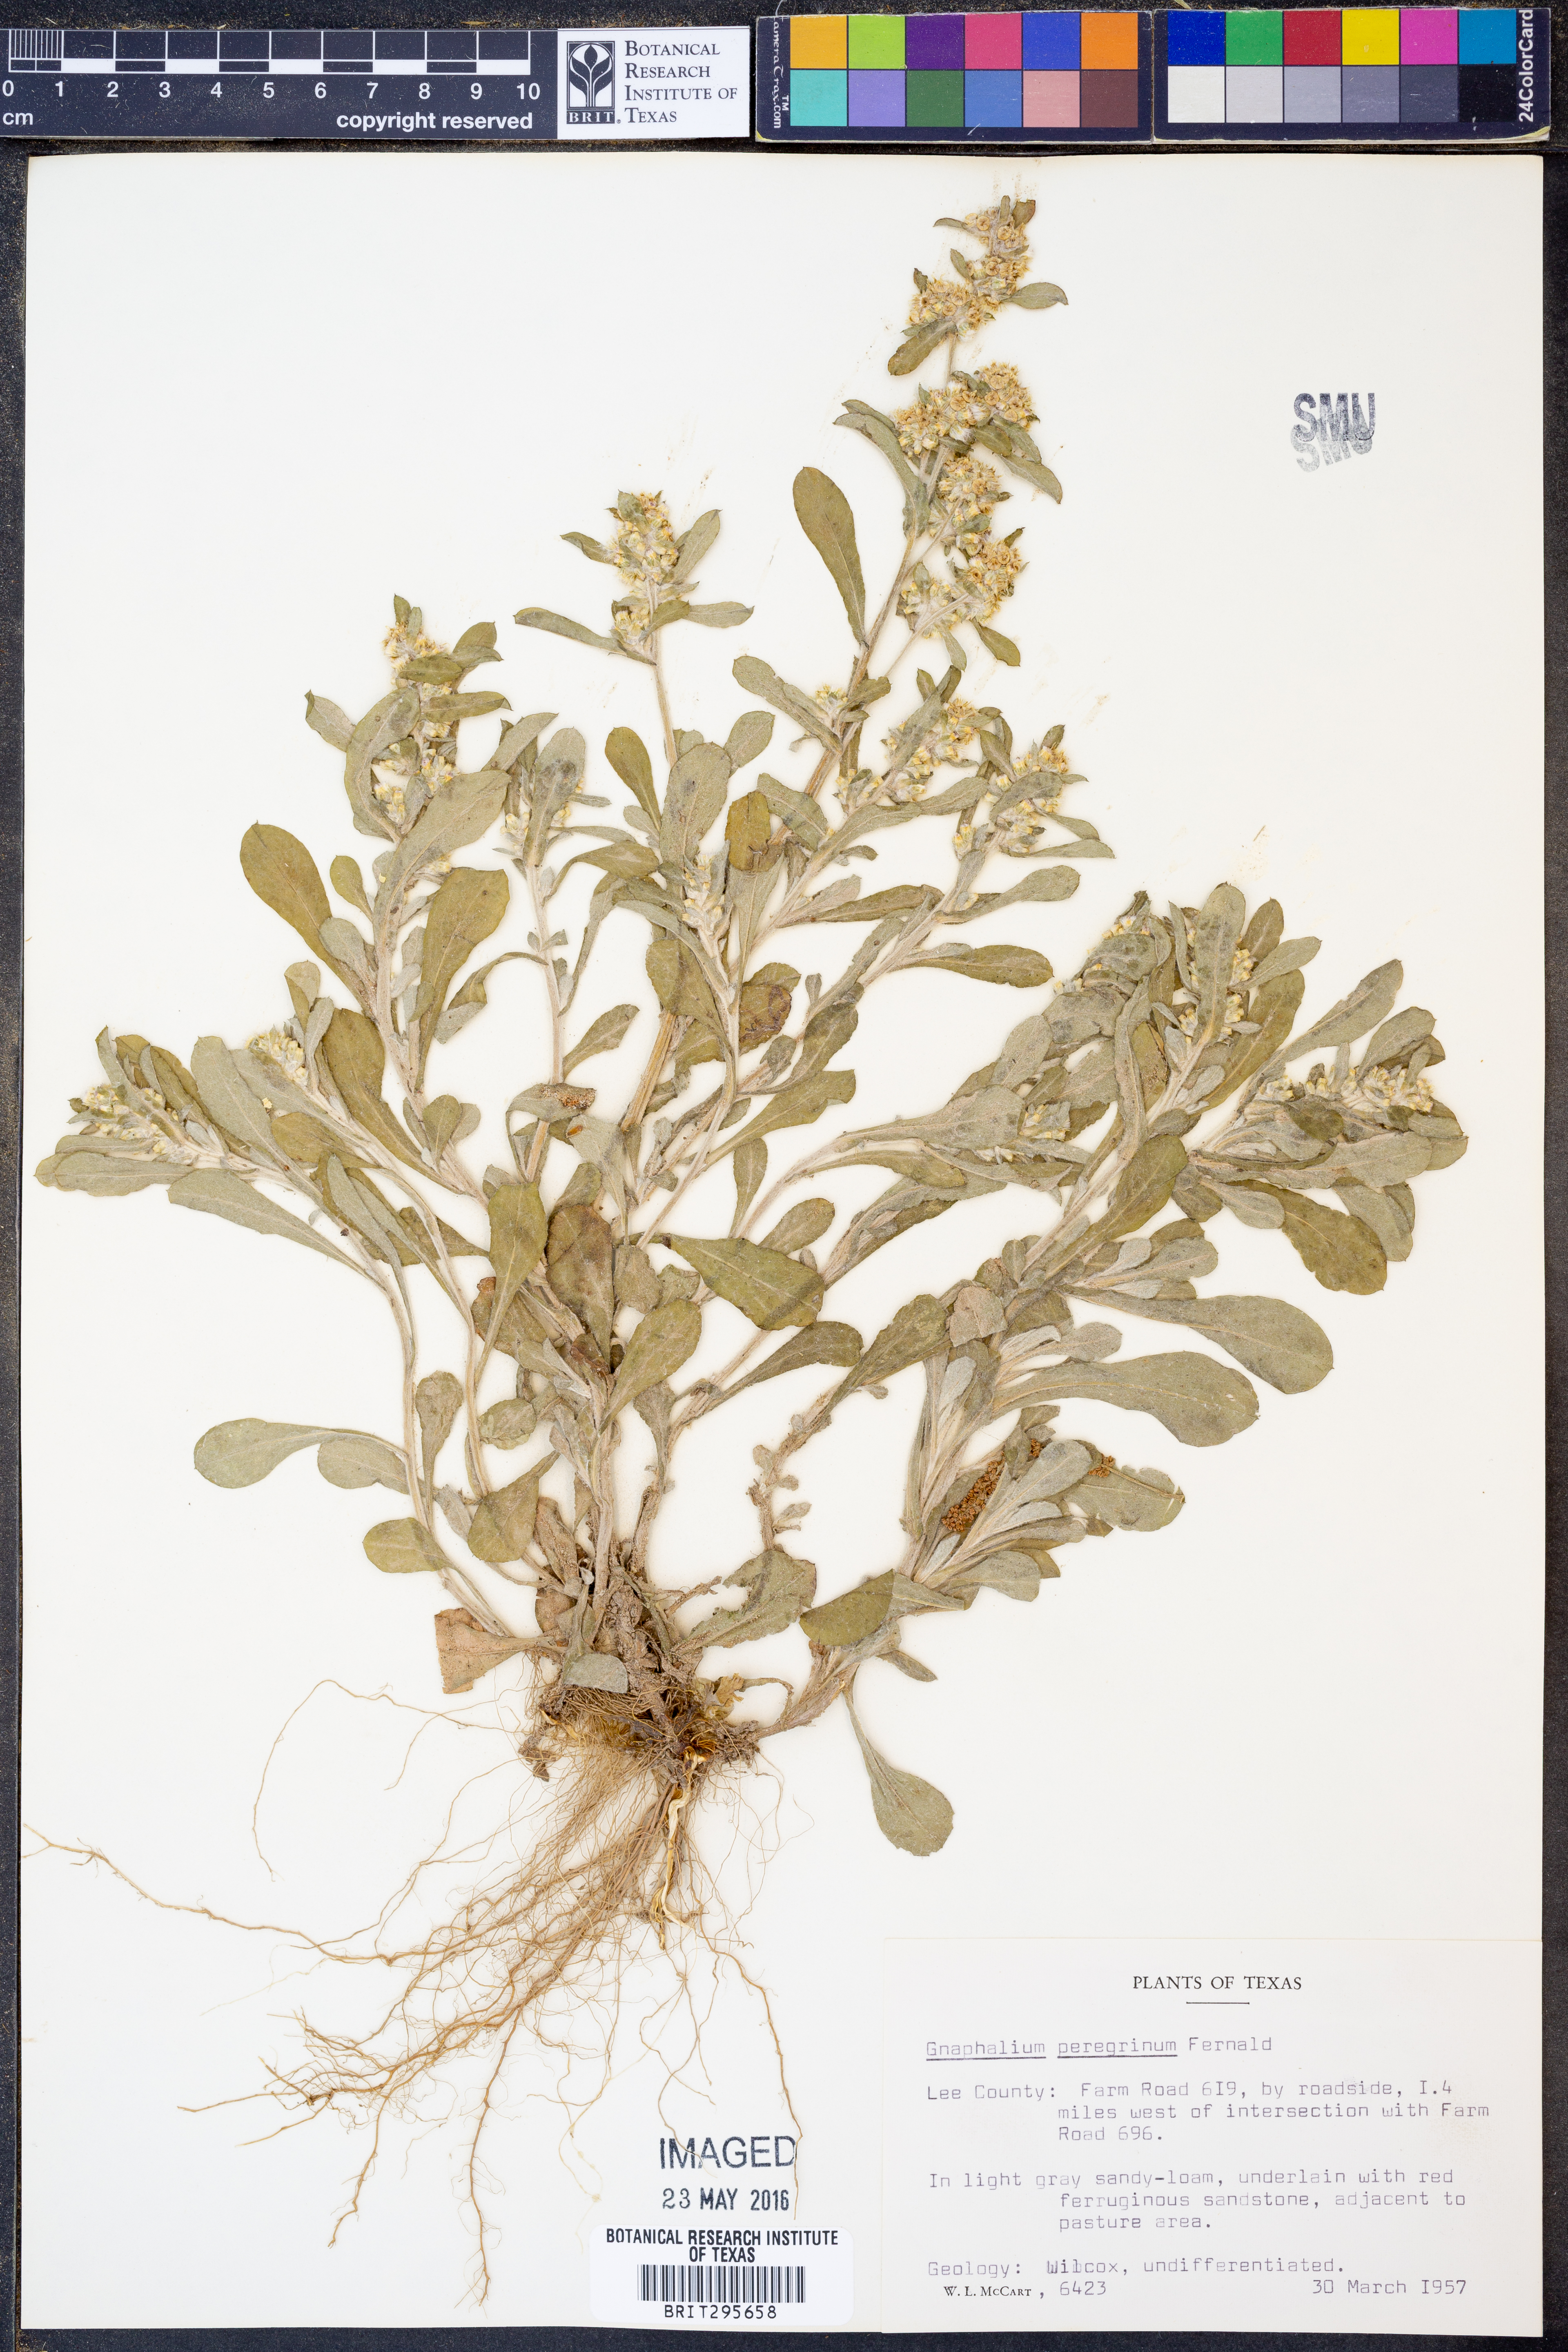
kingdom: Plantae
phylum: Tracheophyta
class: Magnoliopsida
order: Asterales
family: Asteraceae
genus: Gamochaeta
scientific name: Gamochaeta pensylvanica
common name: Pennsylvania everlasting
